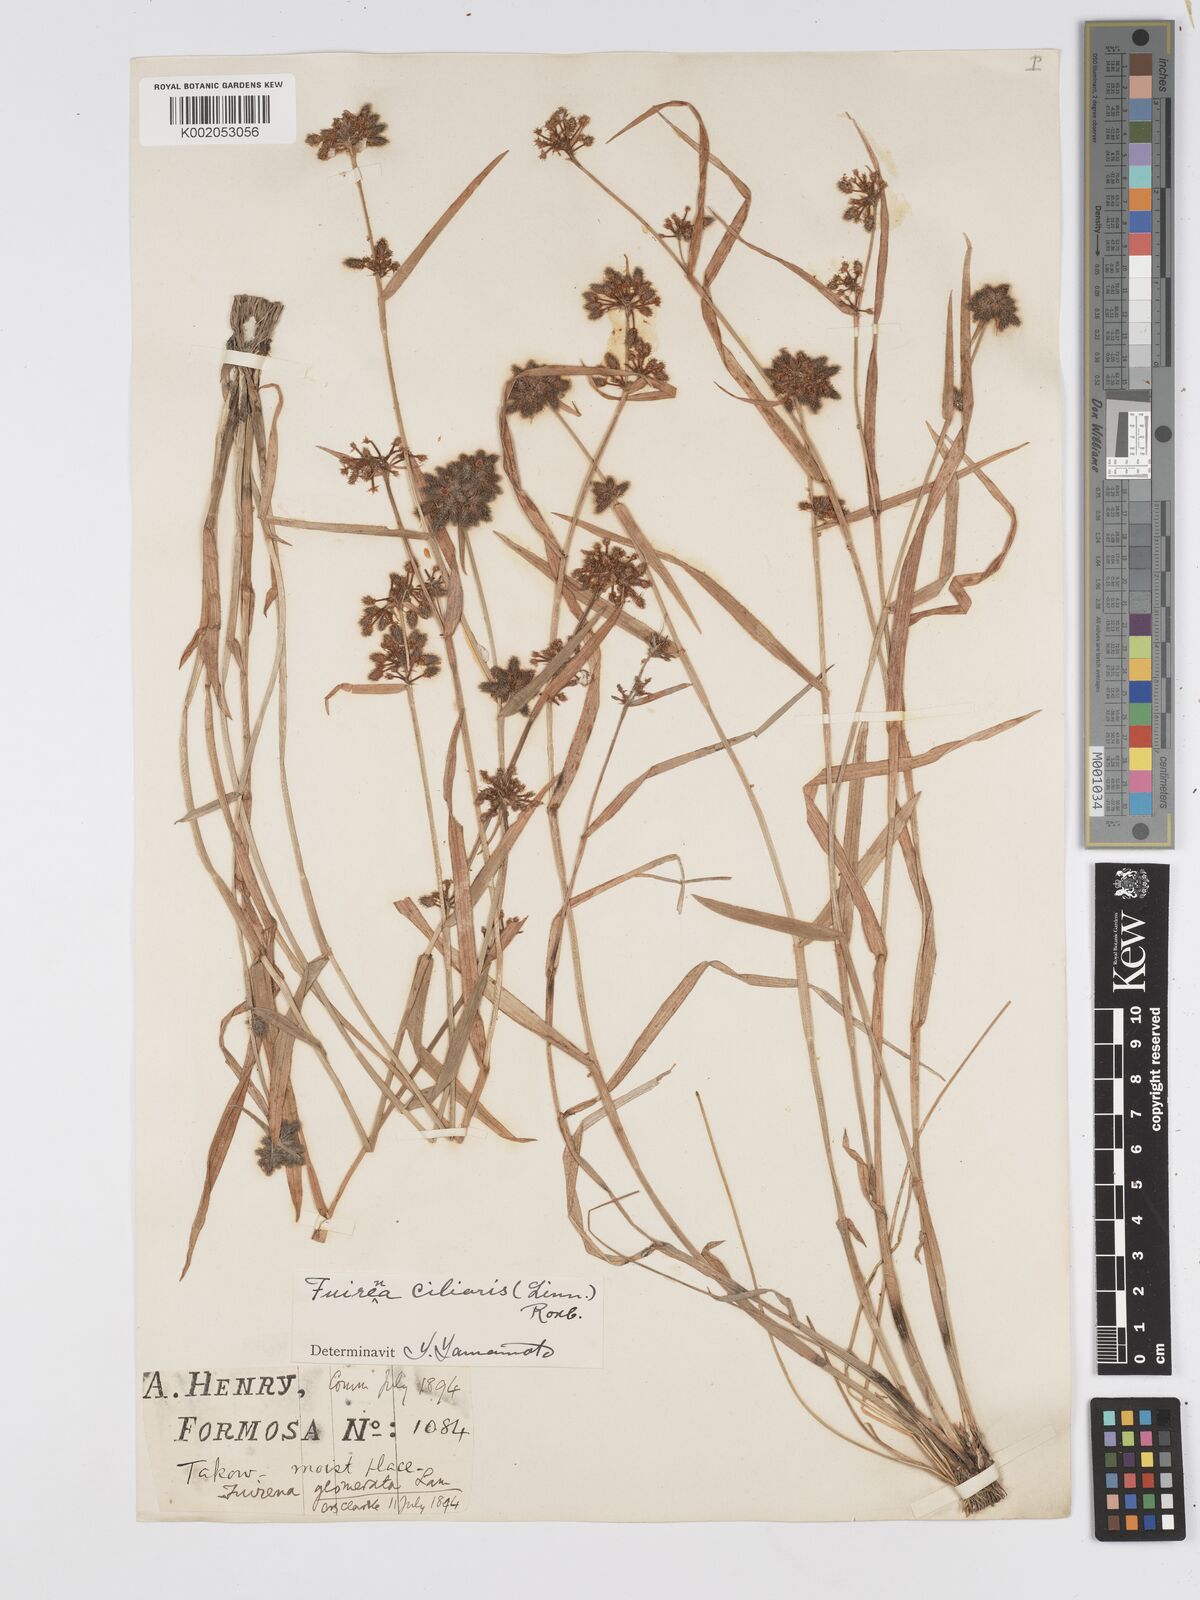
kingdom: Plantae
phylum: Tracheophyta
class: Liliopsida
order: Poales
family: Cyperaceae
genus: Fuirena
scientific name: Fuirena ciliaris
